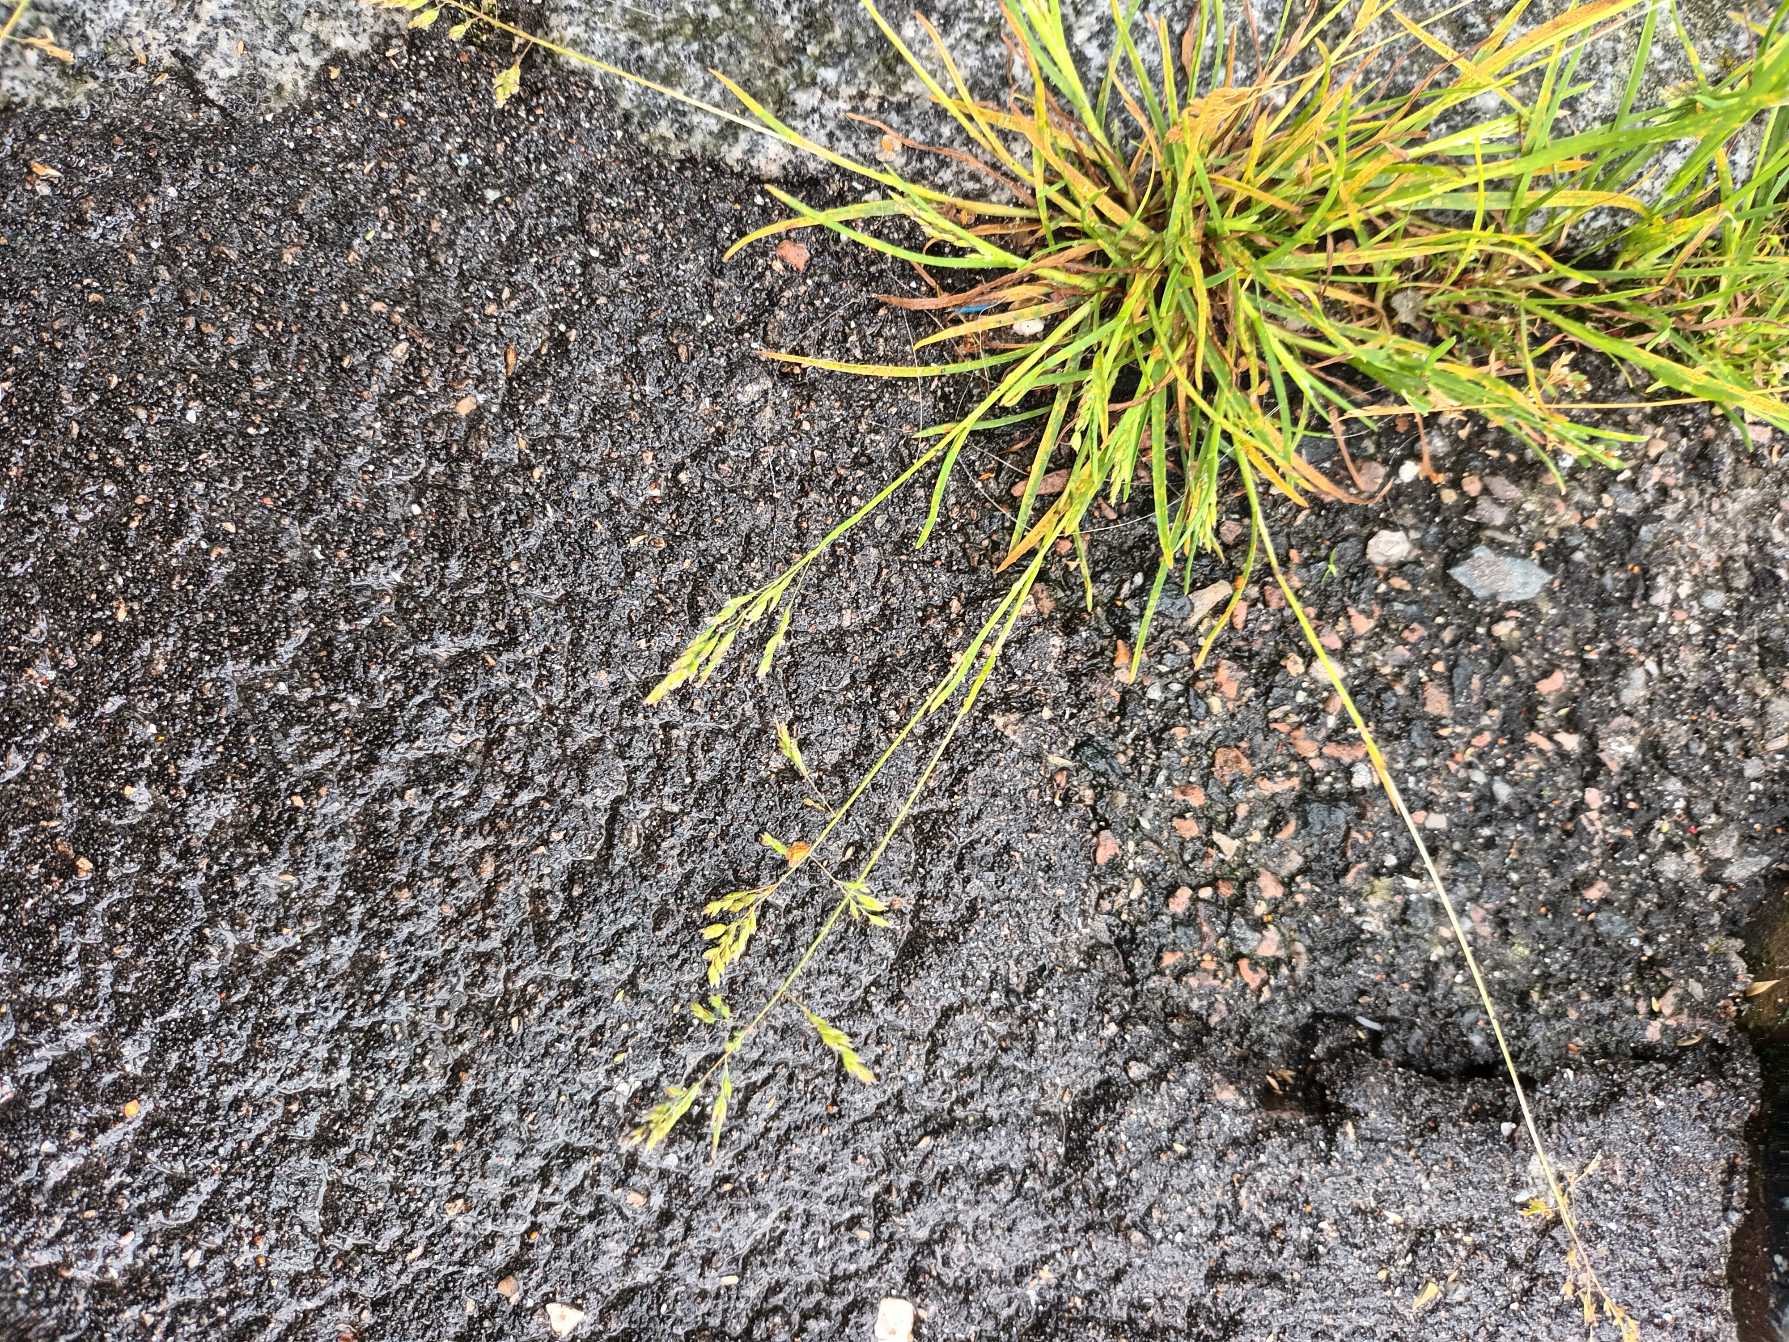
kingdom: Plantae
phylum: Tracheophyta
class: Liliopsida
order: Poales
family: Poaceae
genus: Poa
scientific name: Poa annua
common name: Enårig rapgræs
